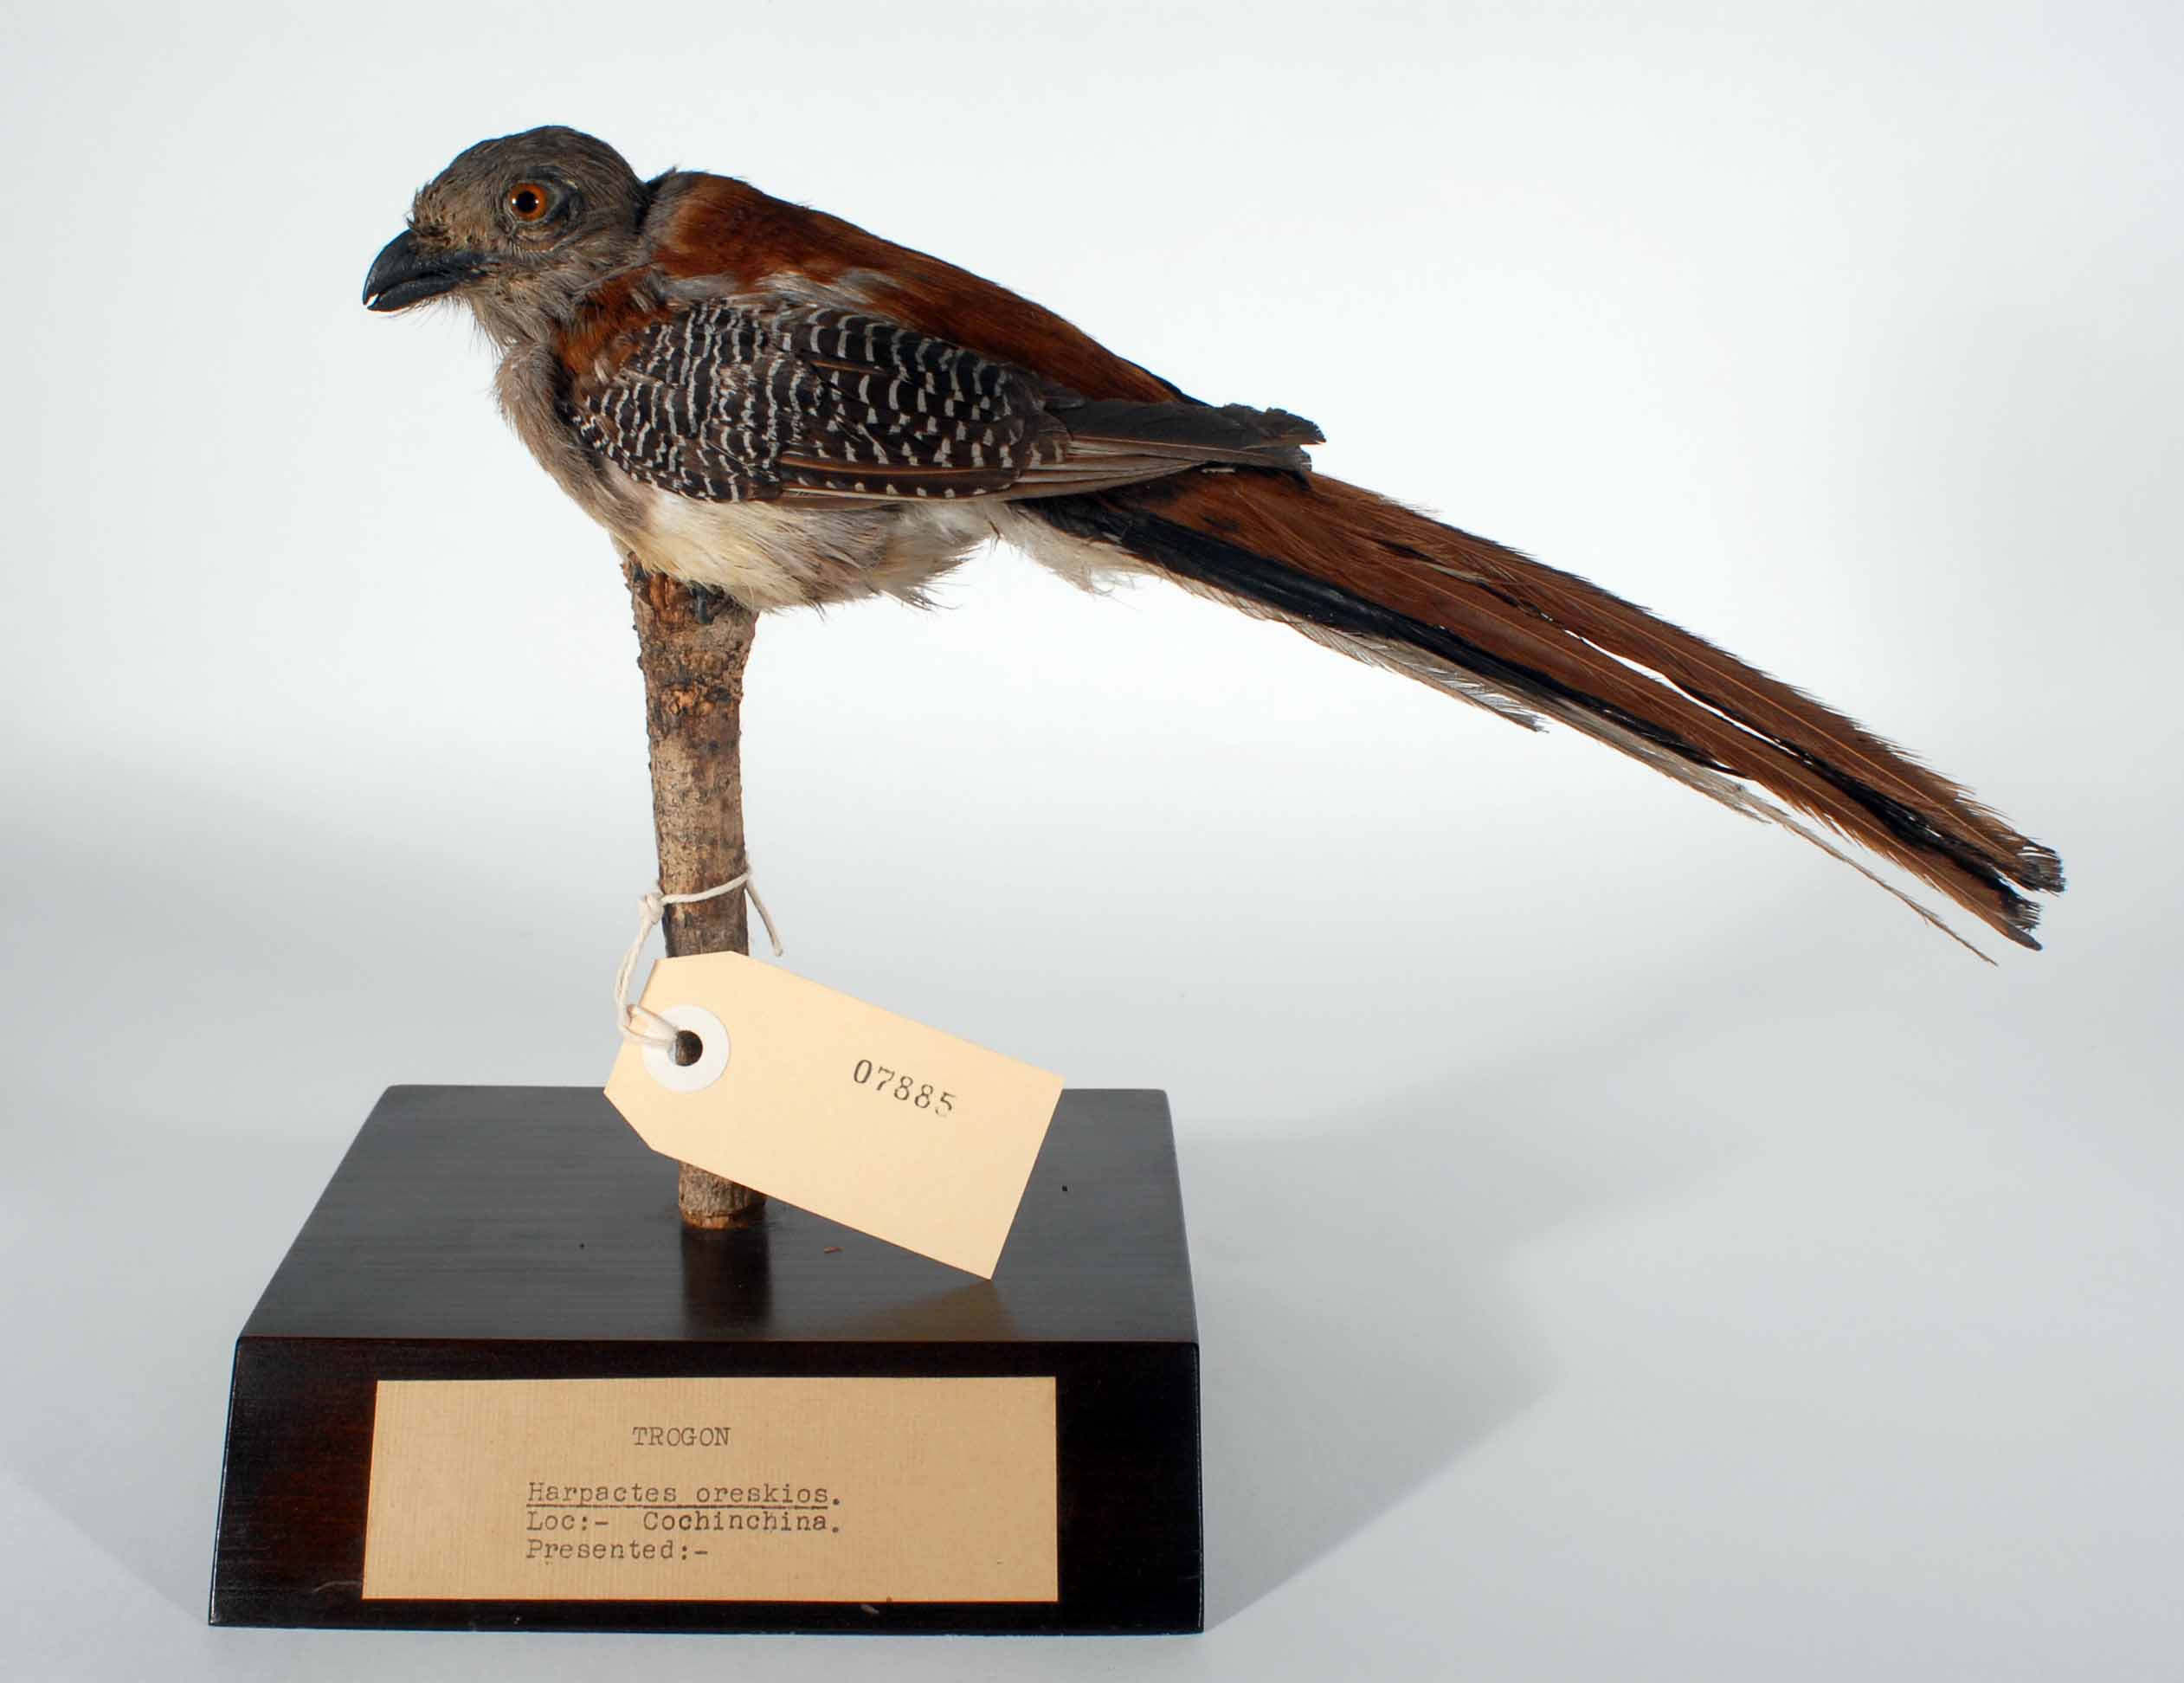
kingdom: Animalia
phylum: Chordata
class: Aves
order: Trogoniformes
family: Trogonidae
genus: Harpactes
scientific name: Harpactes oreskios
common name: Orange-breasted trogon
